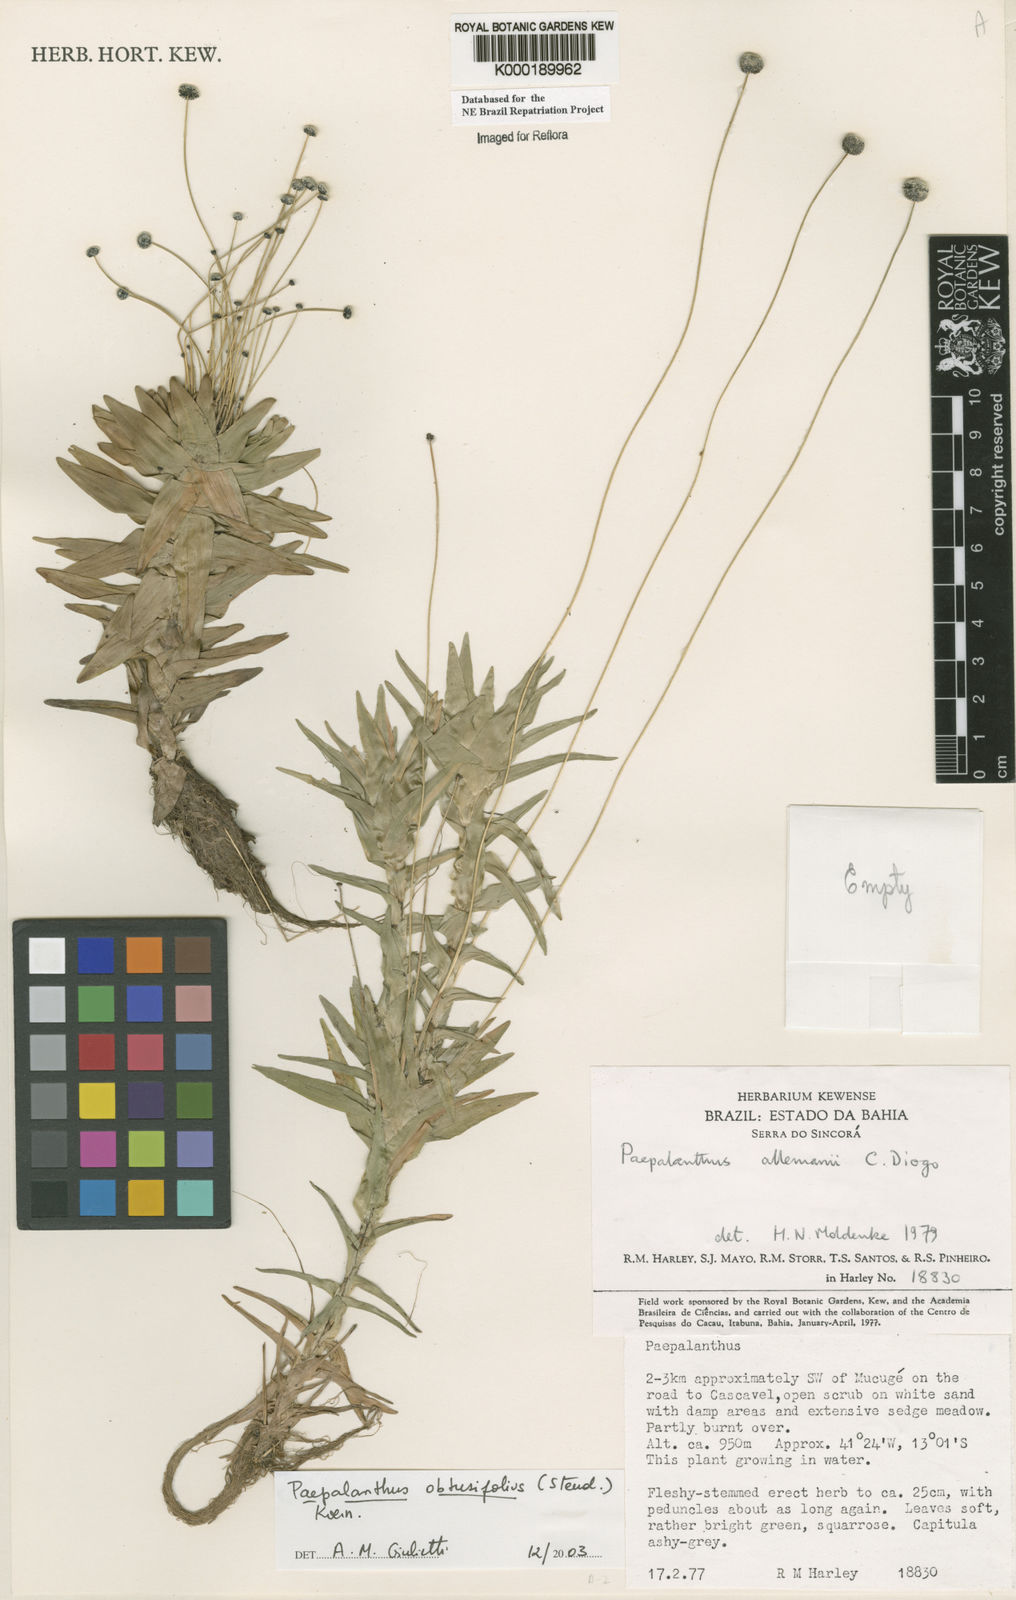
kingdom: Plantae
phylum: Tracheophyta
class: Liliopsida
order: Poales
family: Eriocaulaceae
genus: Paepalanthus
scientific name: Paepalanthus
